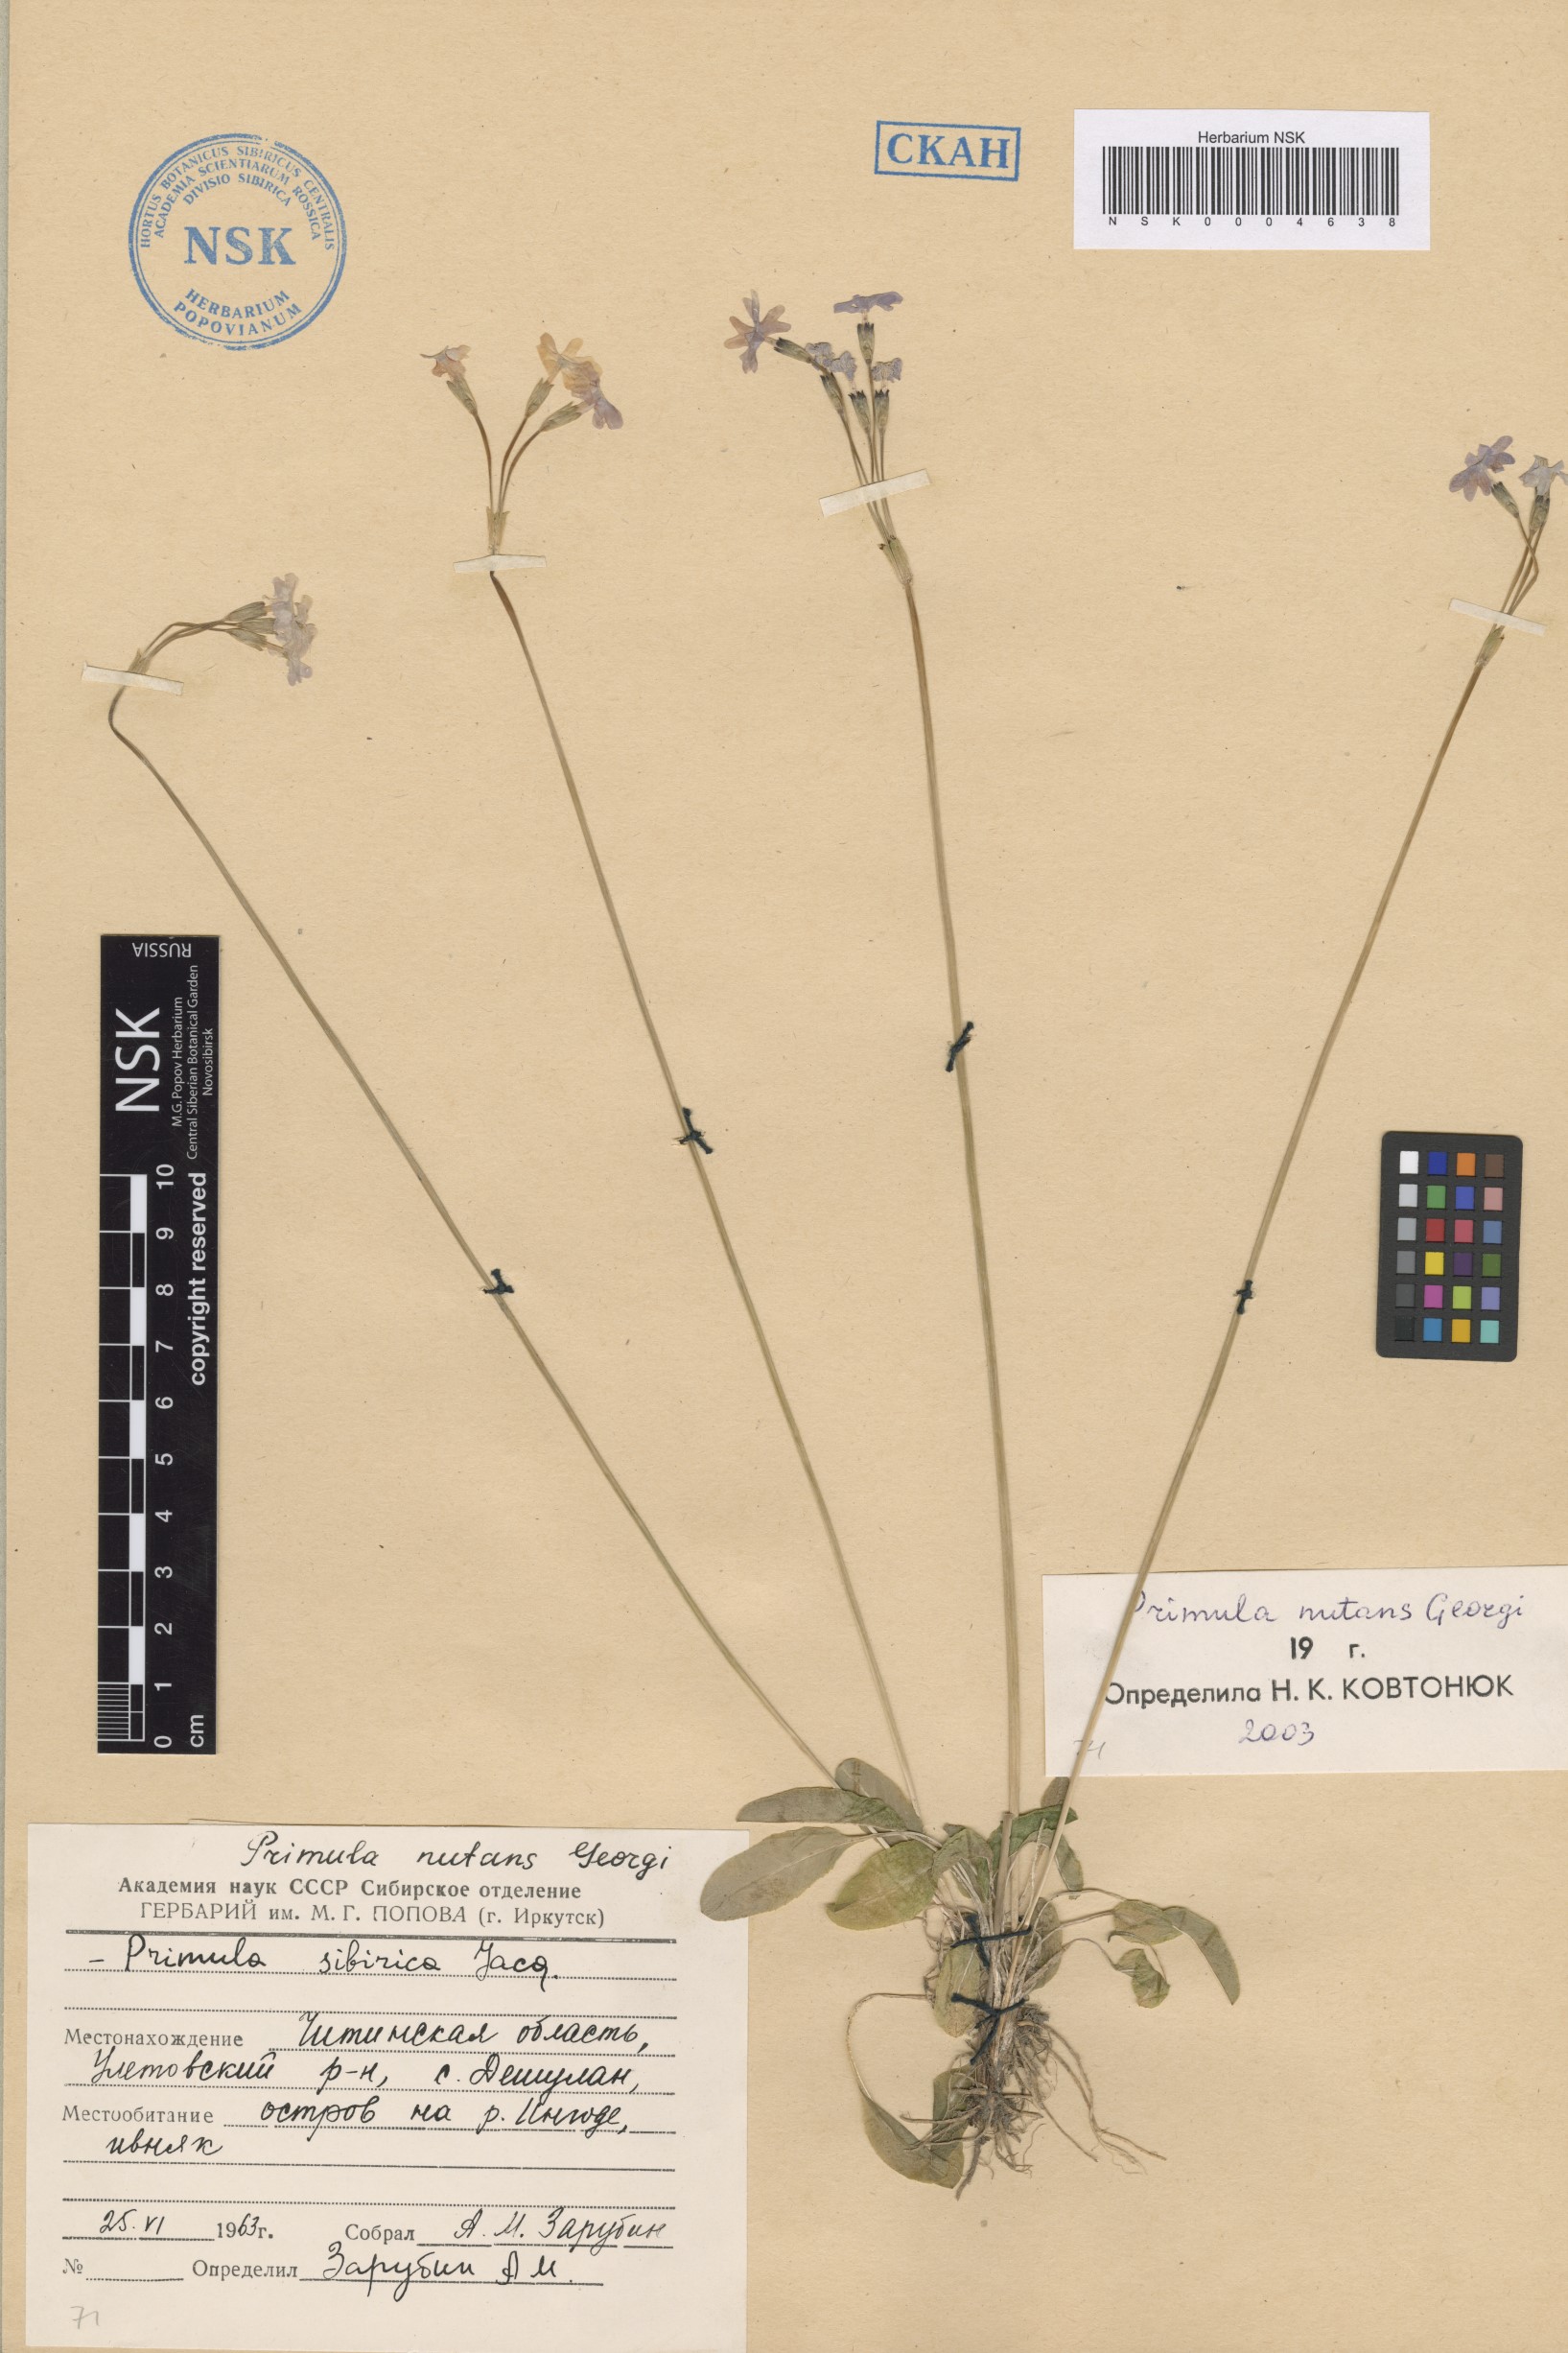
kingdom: Plantae
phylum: Tracheophyta
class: Magnoliopsida
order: Ericales
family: Primulaceae
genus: Primula
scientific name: Primula nutans
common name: Siberian primrose
